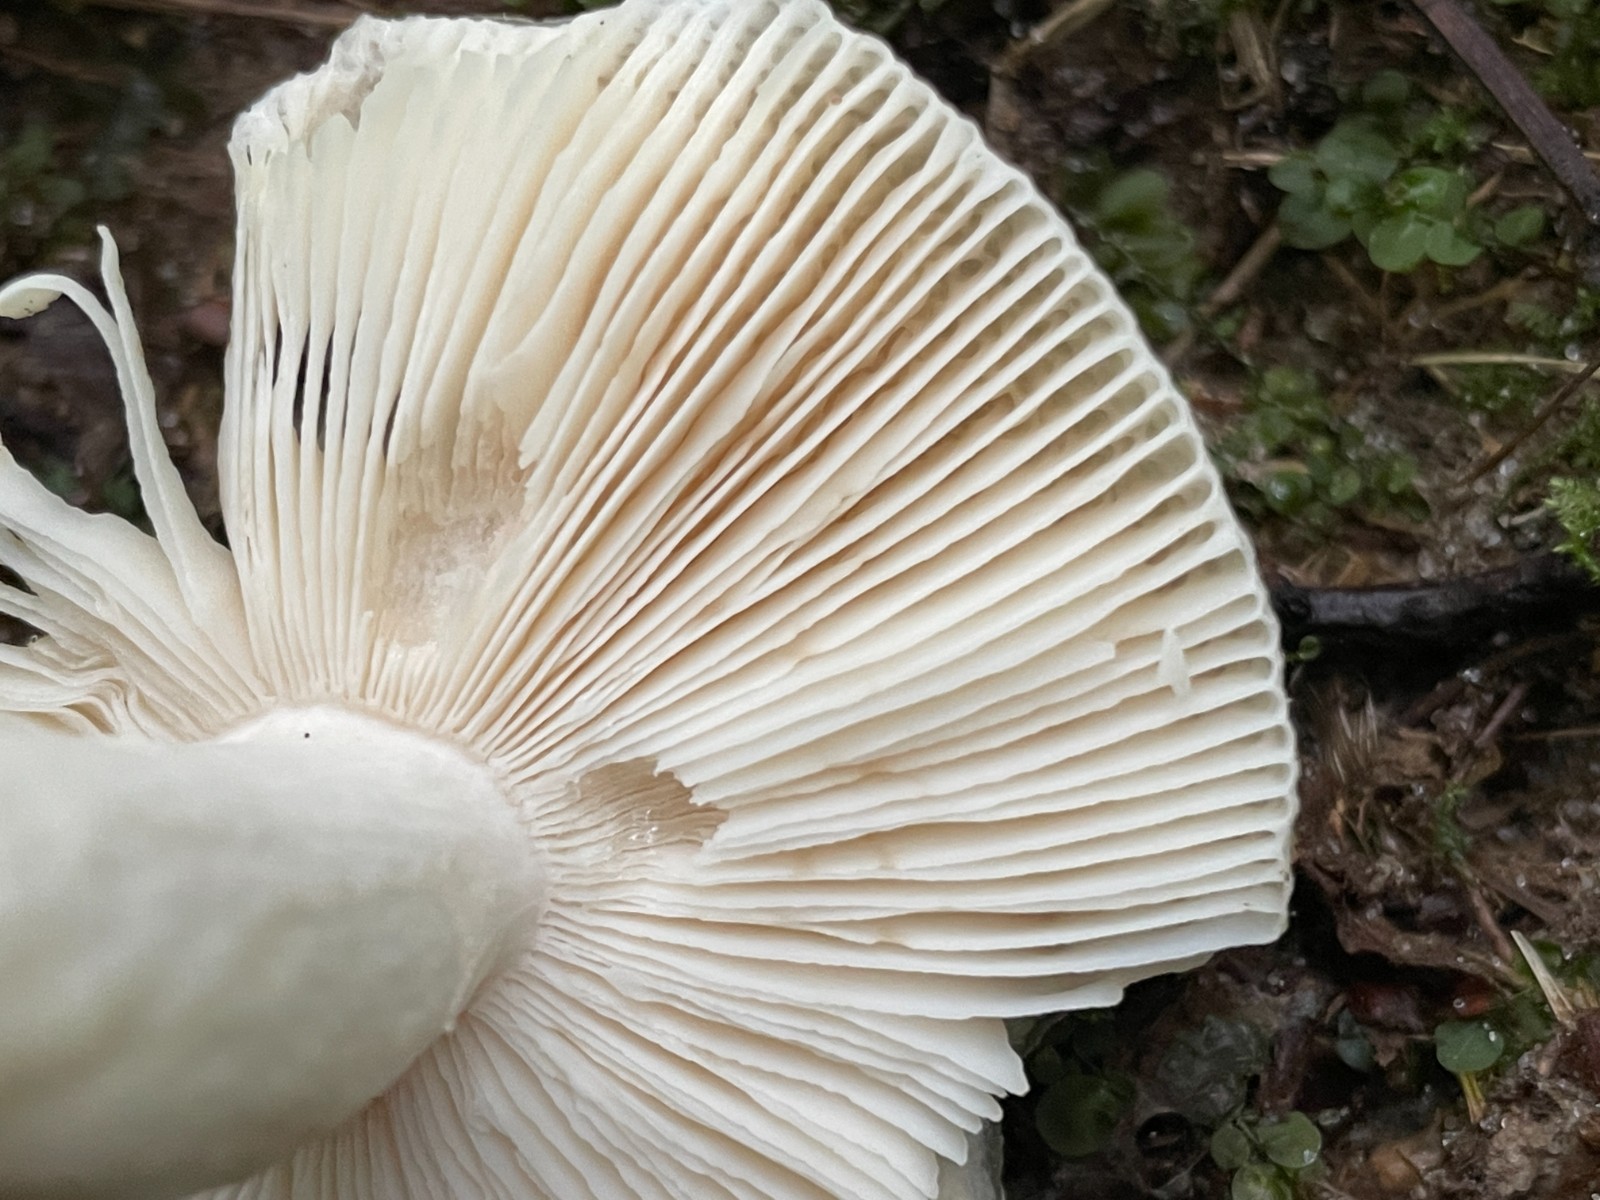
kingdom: Fungi
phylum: Basidiomycota
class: Agaricomycetes
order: Russulales
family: Russulaceae
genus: Russula
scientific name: Russula parazurea
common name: blågrå skørhat
